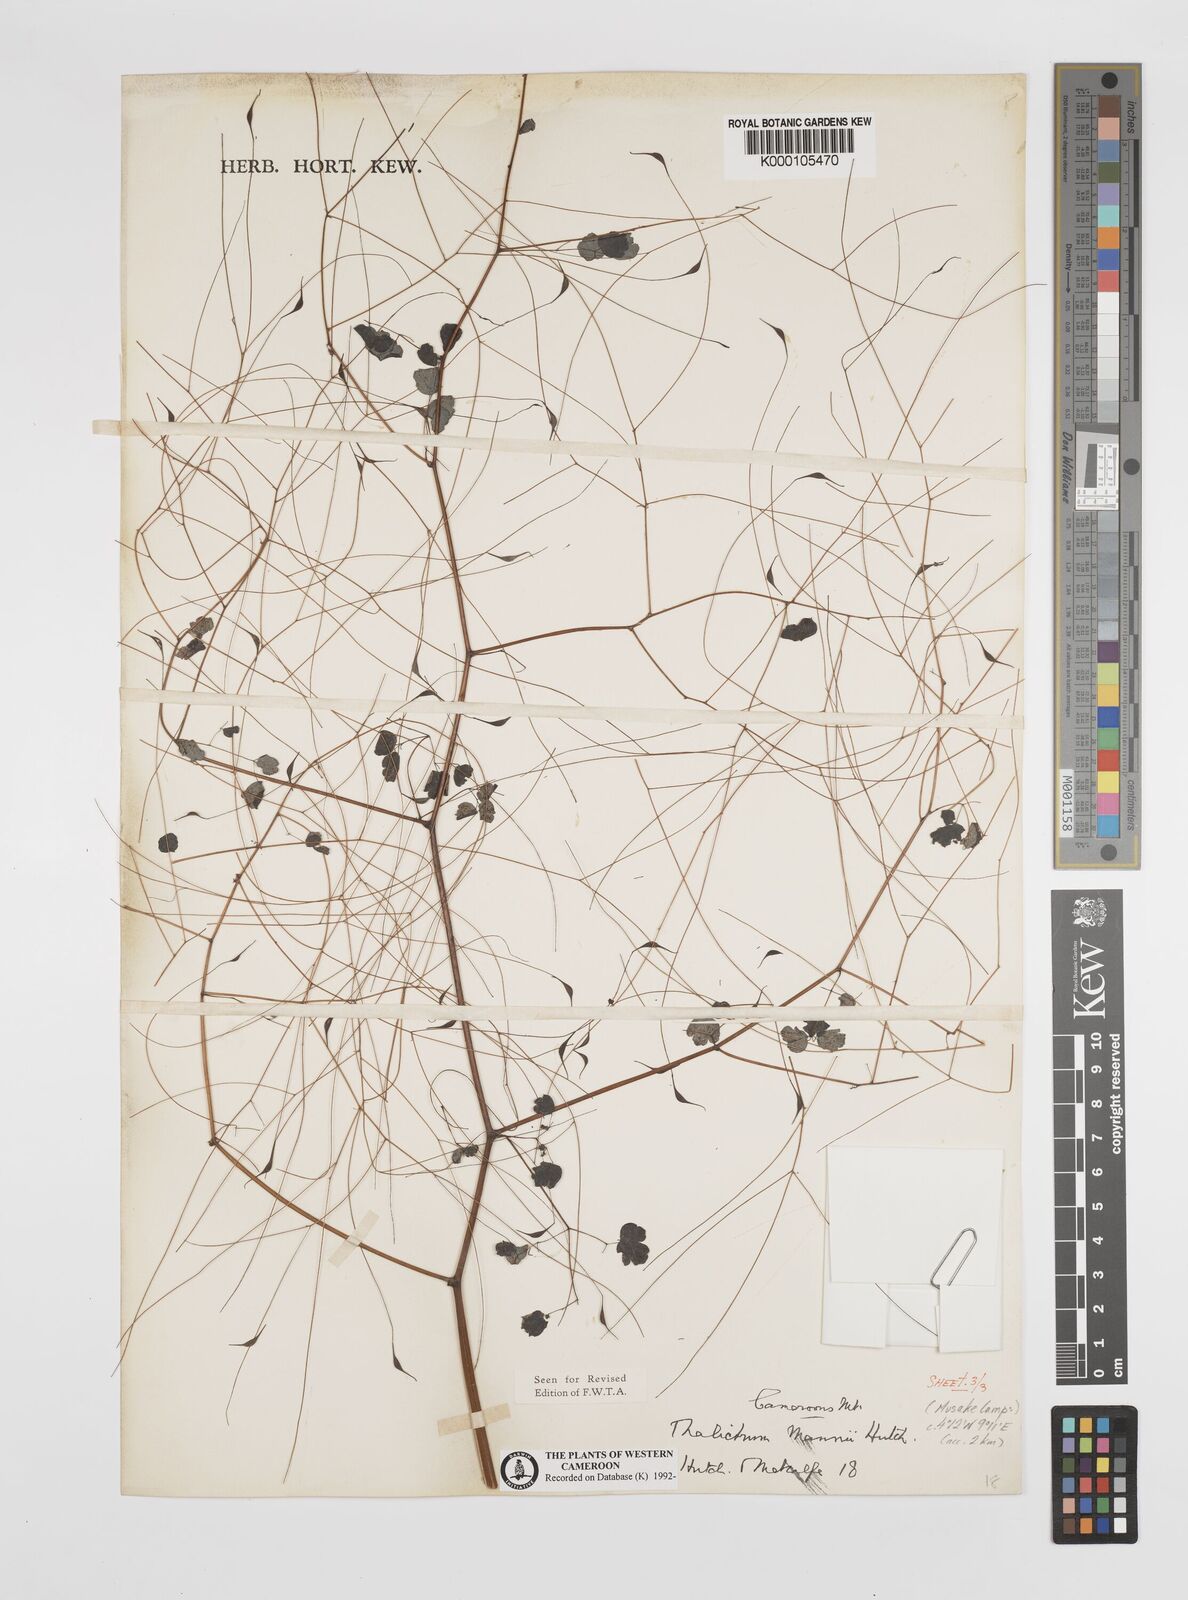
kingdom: Plantae
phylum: Tracheophyta
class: Magnoliopsida
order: Ranunculales
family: Ranunculaceae
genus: Thalictrum
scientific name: Thalictrum
